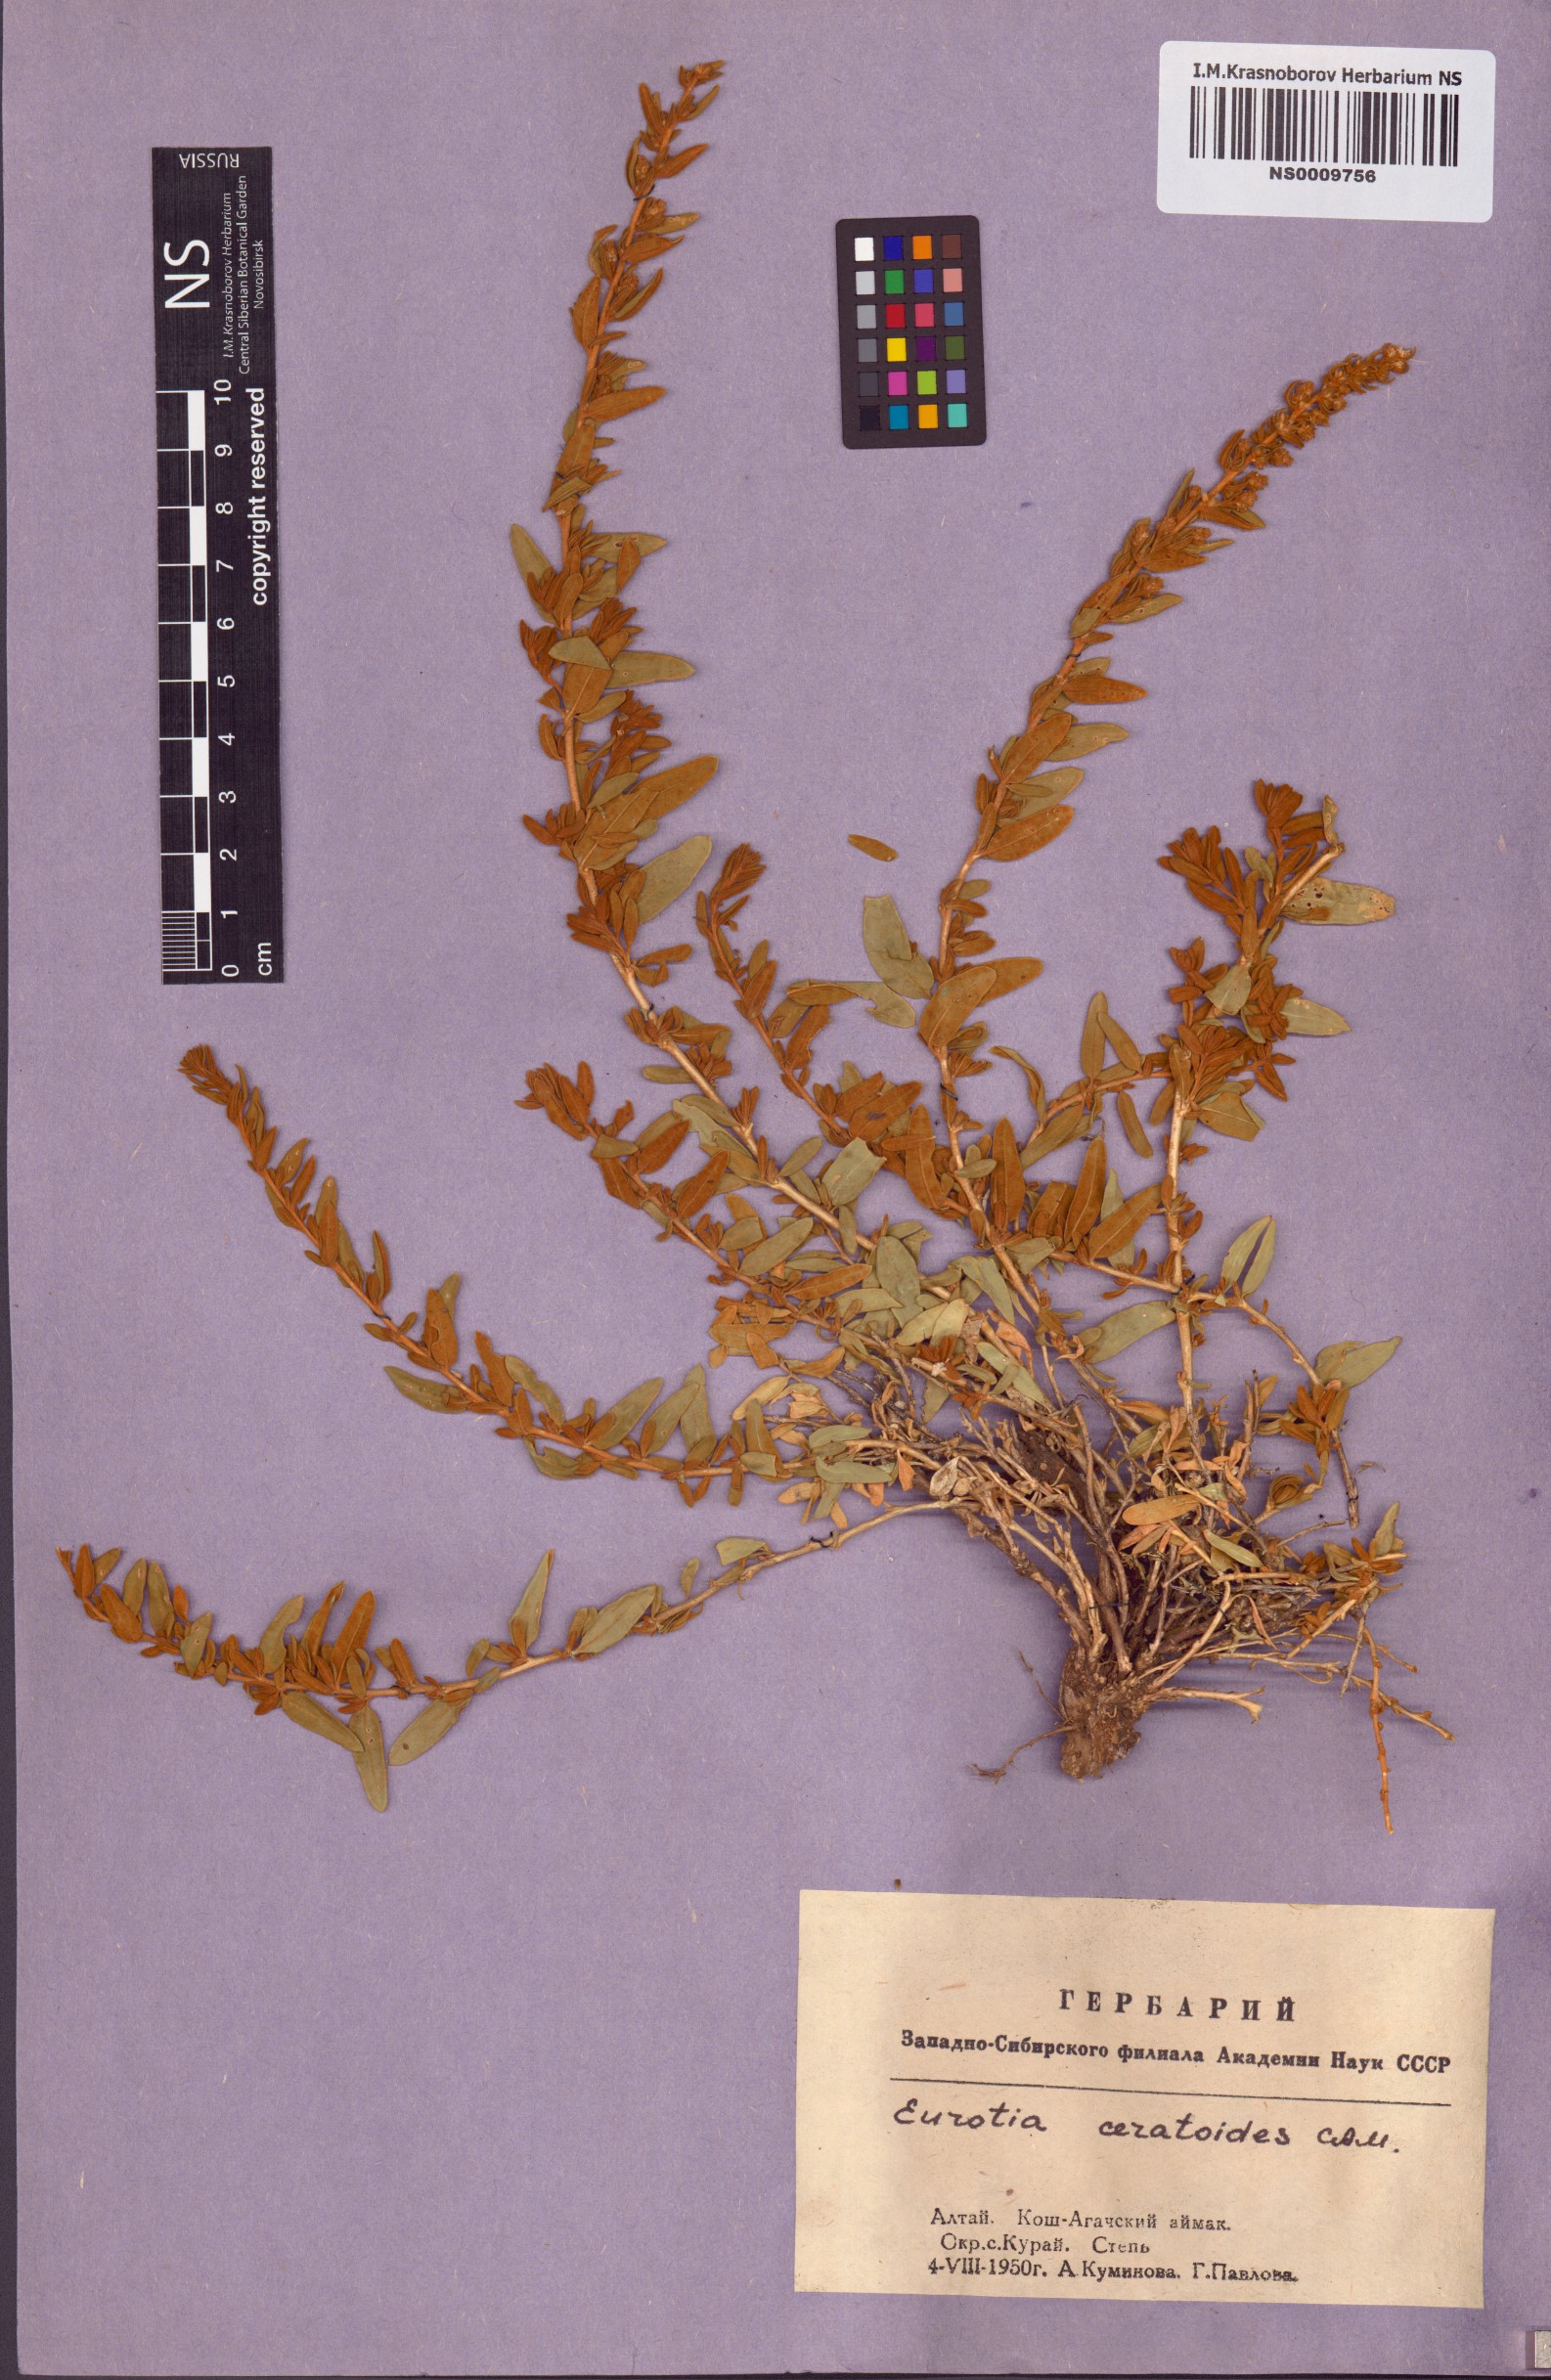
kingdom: Plantae
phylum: Tracheophyta
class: Magnoliopsida
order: Caryophyllales
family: Amaranthaceae
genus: Krascheninnikovia
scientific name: Krascheninnikovia ceratoides
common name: Pamirian winterfat
